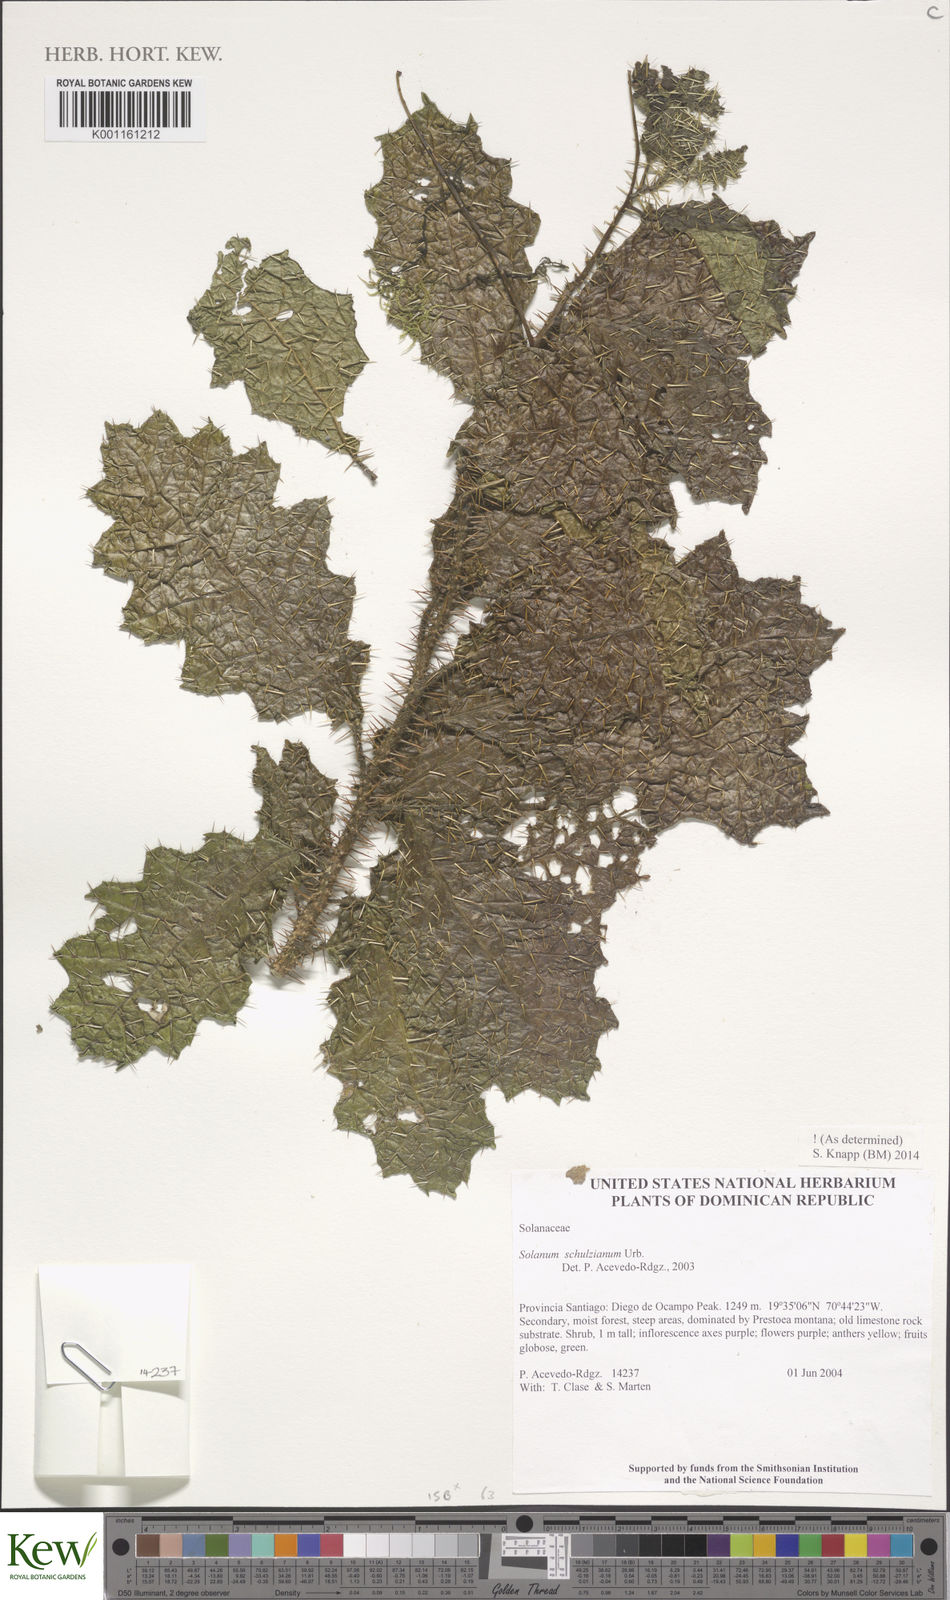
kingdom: Plantae
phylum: Tracheophyta
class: Magnoliopsida
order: Solanales
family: Solanaceae
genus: Solanum
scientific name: Solanum schulzianum
